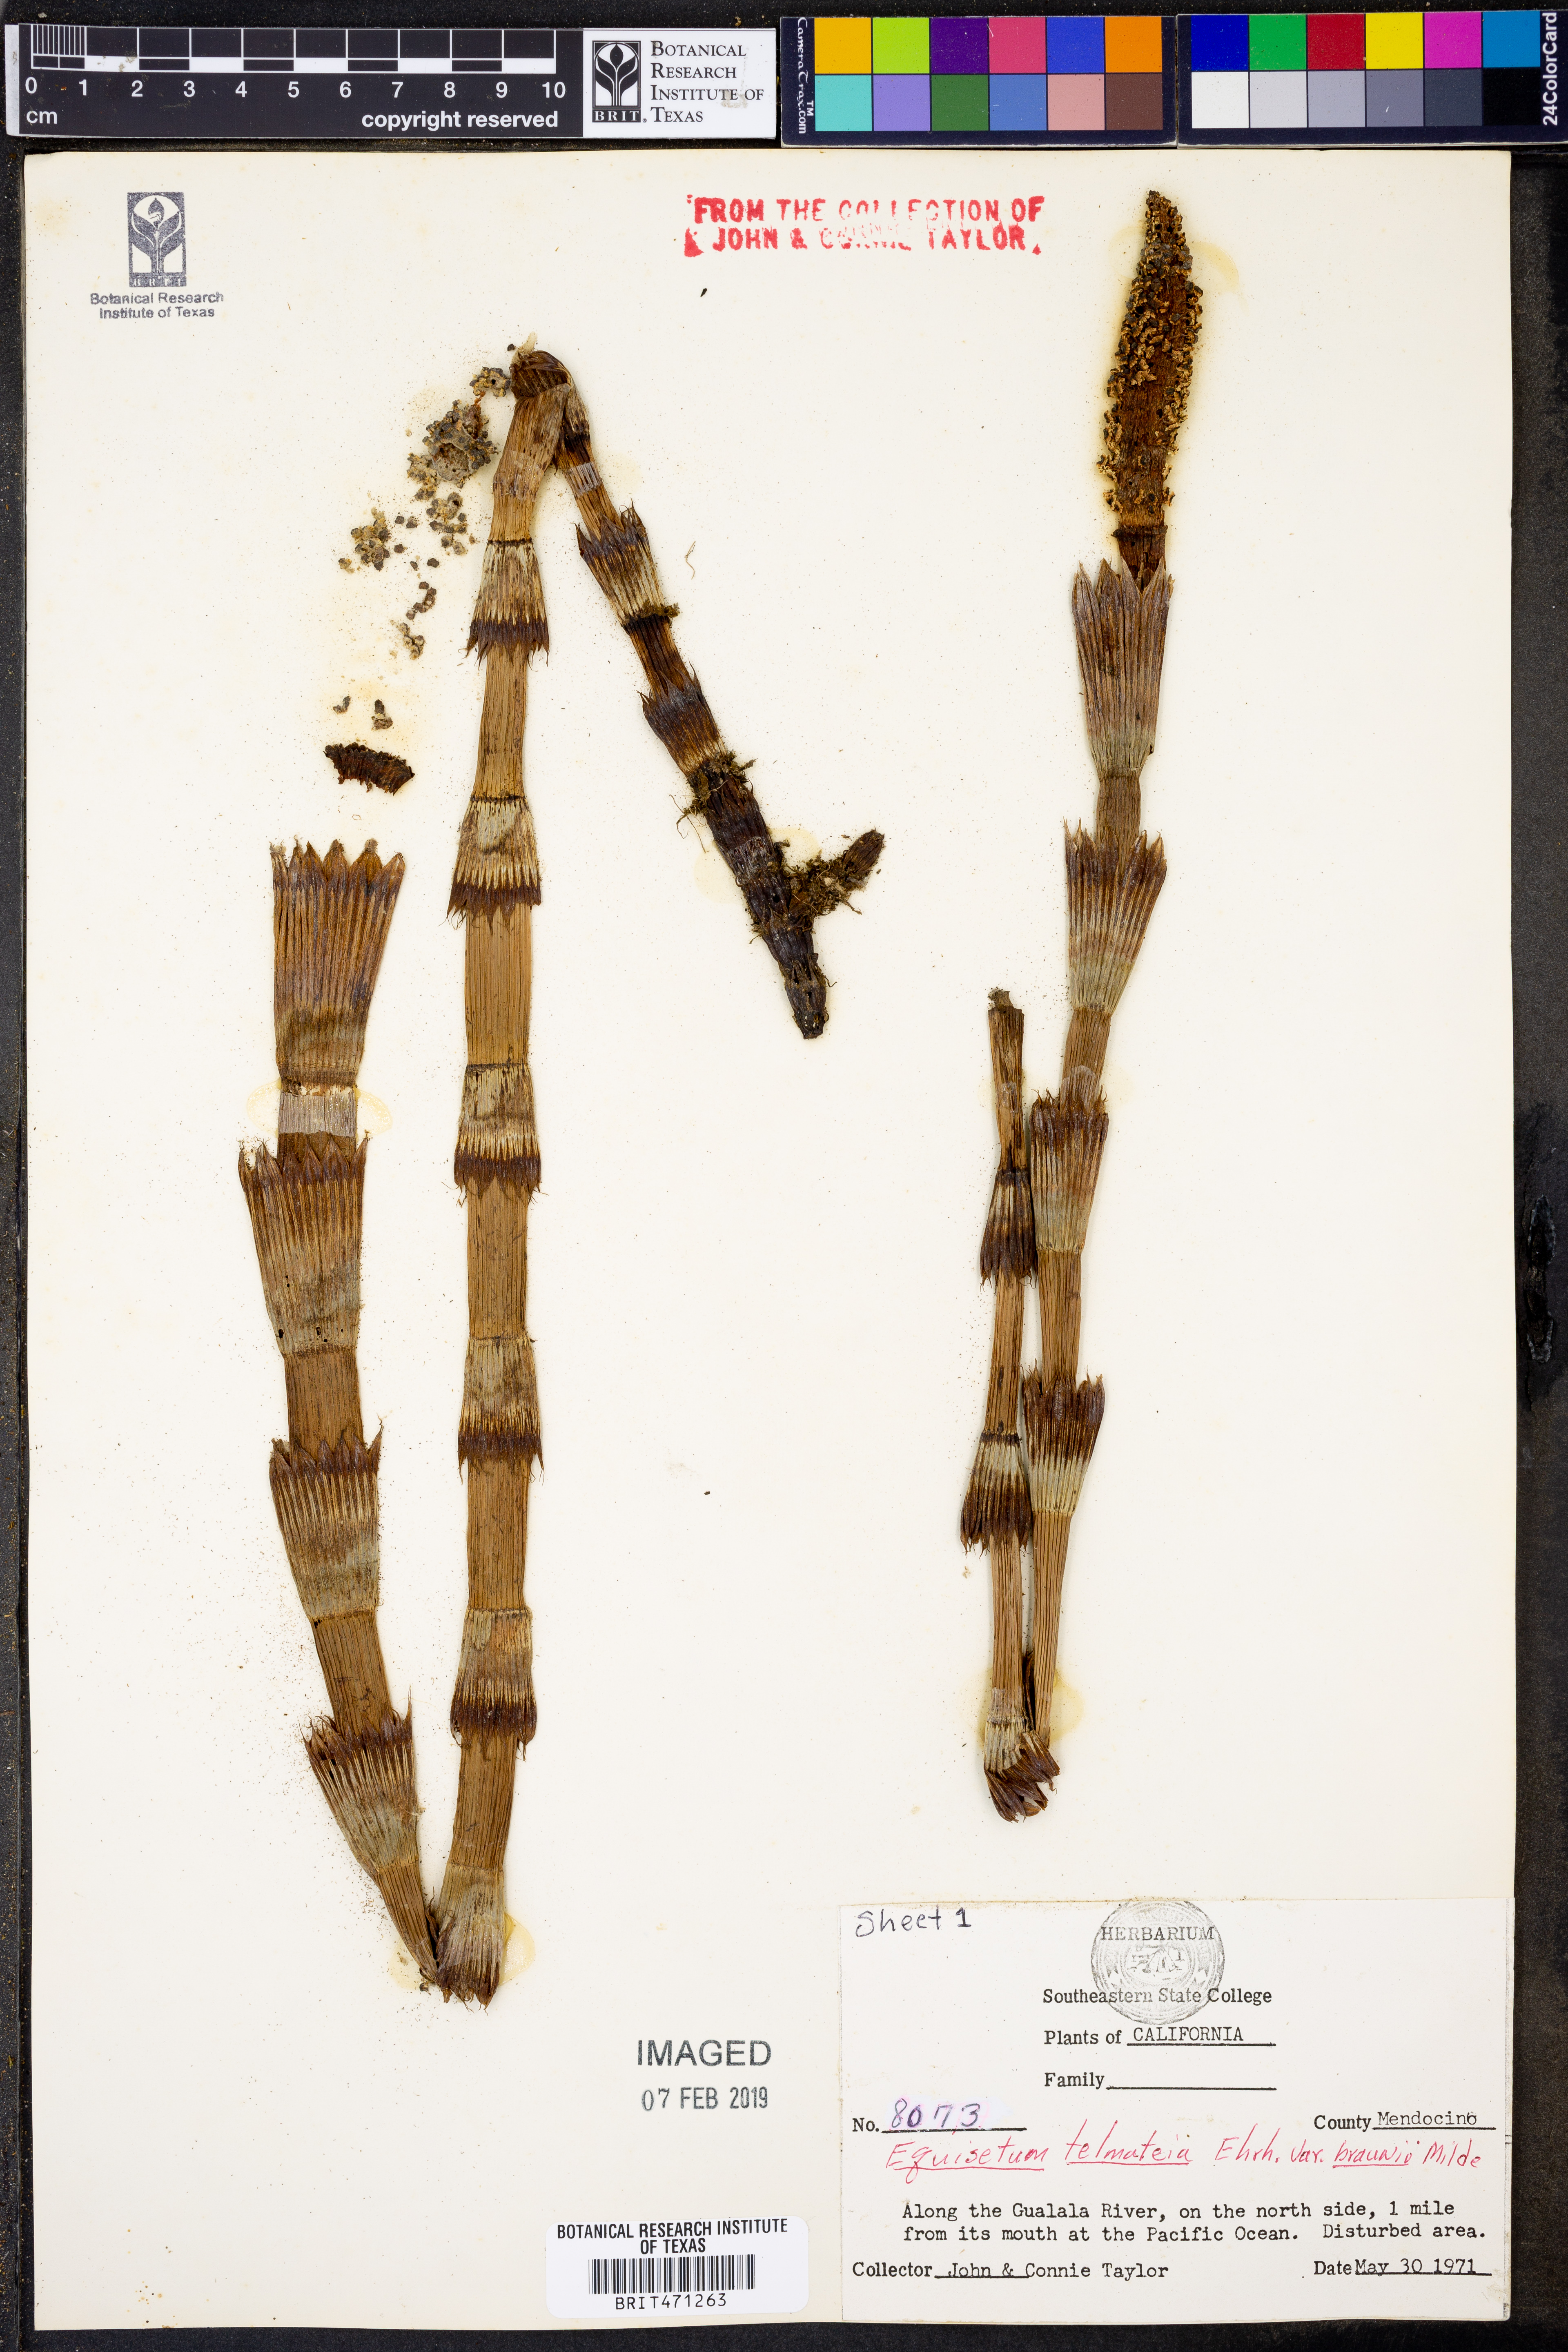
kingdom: Plantae
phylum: Tracheophyta
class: Polypodiopsida
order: Equisetales
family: Equisetaceae
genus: Equisetum
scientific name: Equisetum braunii
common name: Braun's horsetail
